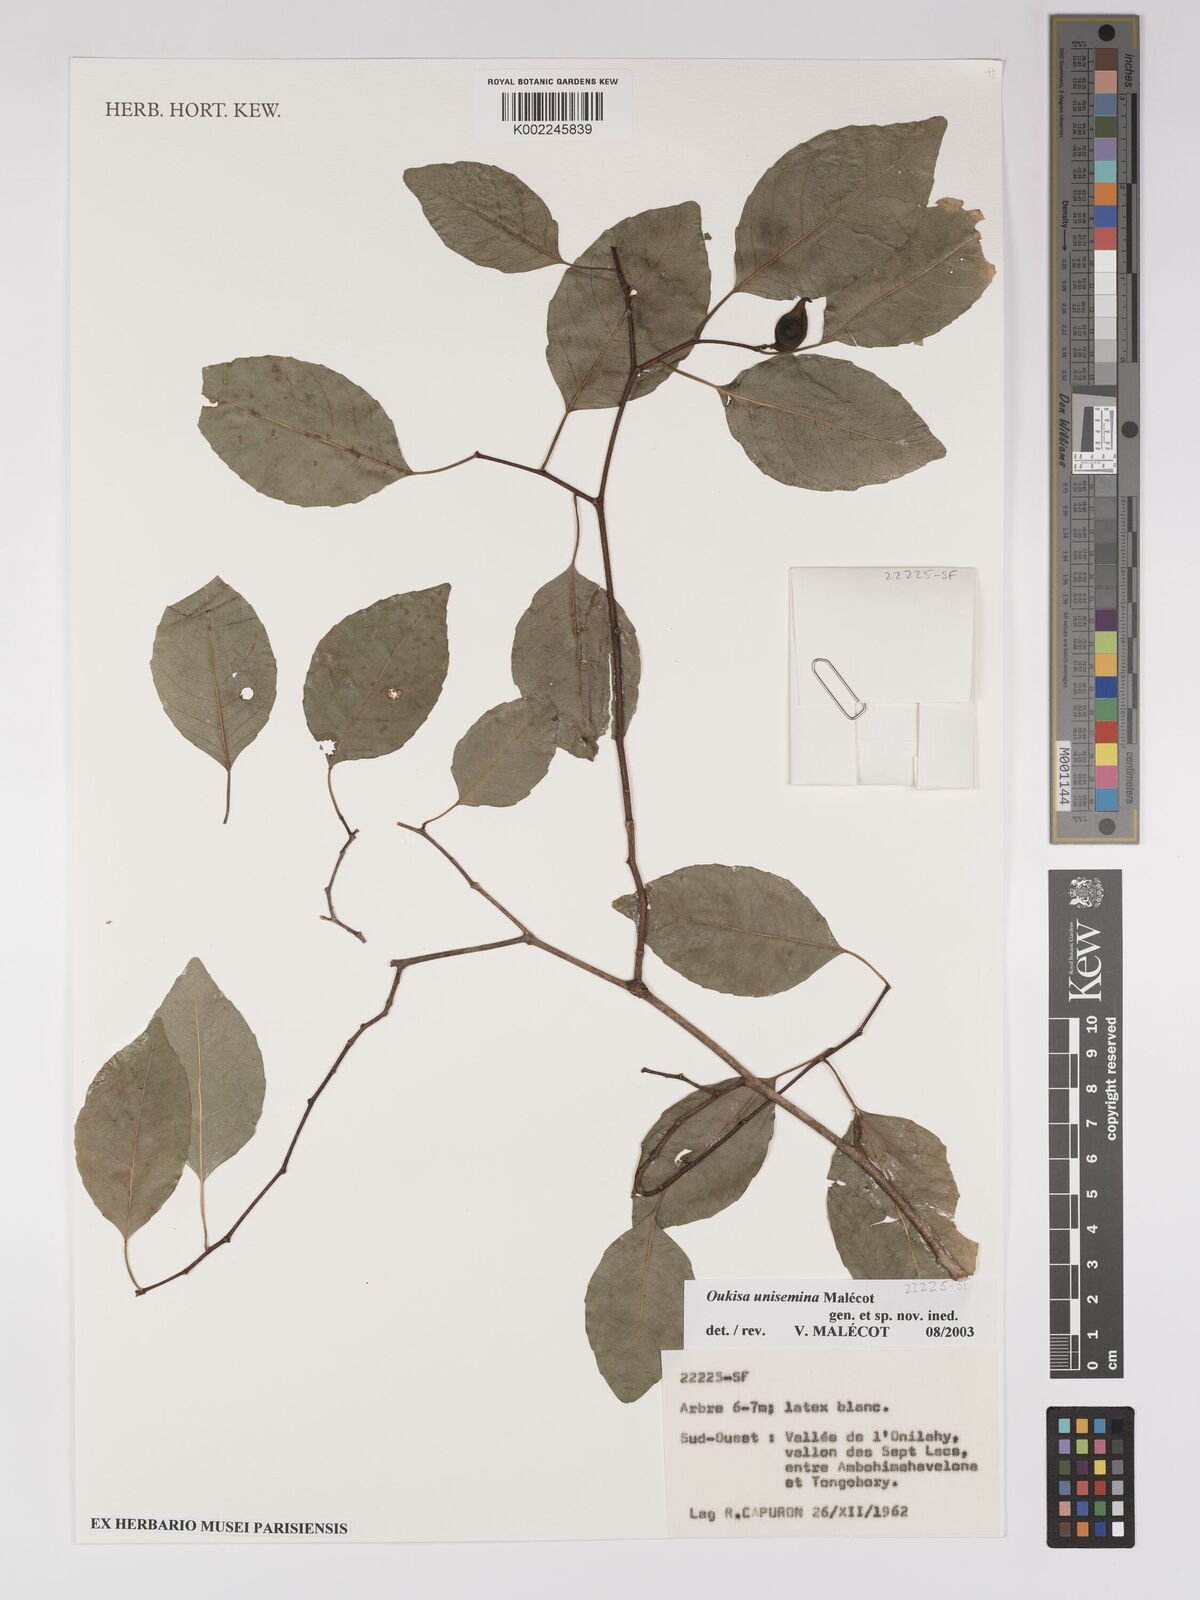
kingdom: Plantae
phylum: Tracheophyta
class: Magnoliopsida
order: Malpighiales
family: Euphorbiaceae
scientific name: Euphorbiaceae
